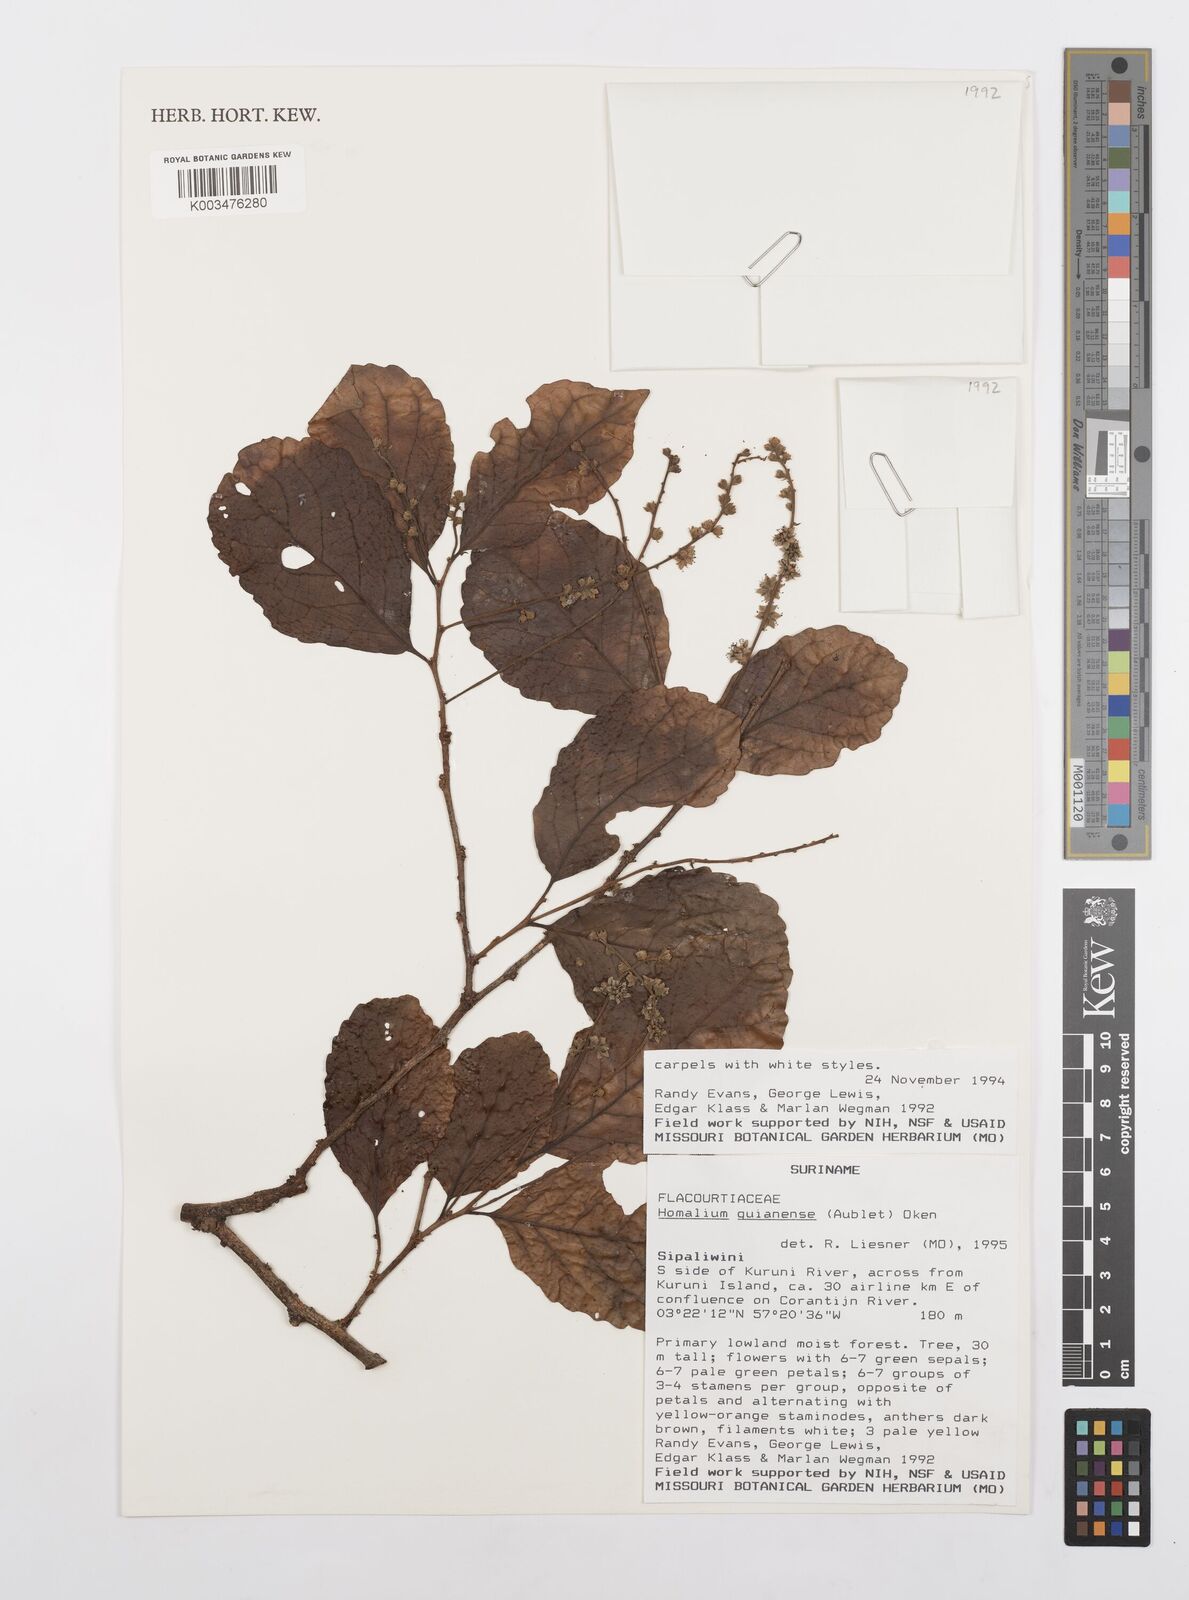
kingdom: Plantae
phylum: Tracheophyta
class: Magnoliopsida
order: Malpighiales
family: Salicaceae
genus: Homalium
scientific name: Homalium guianense
